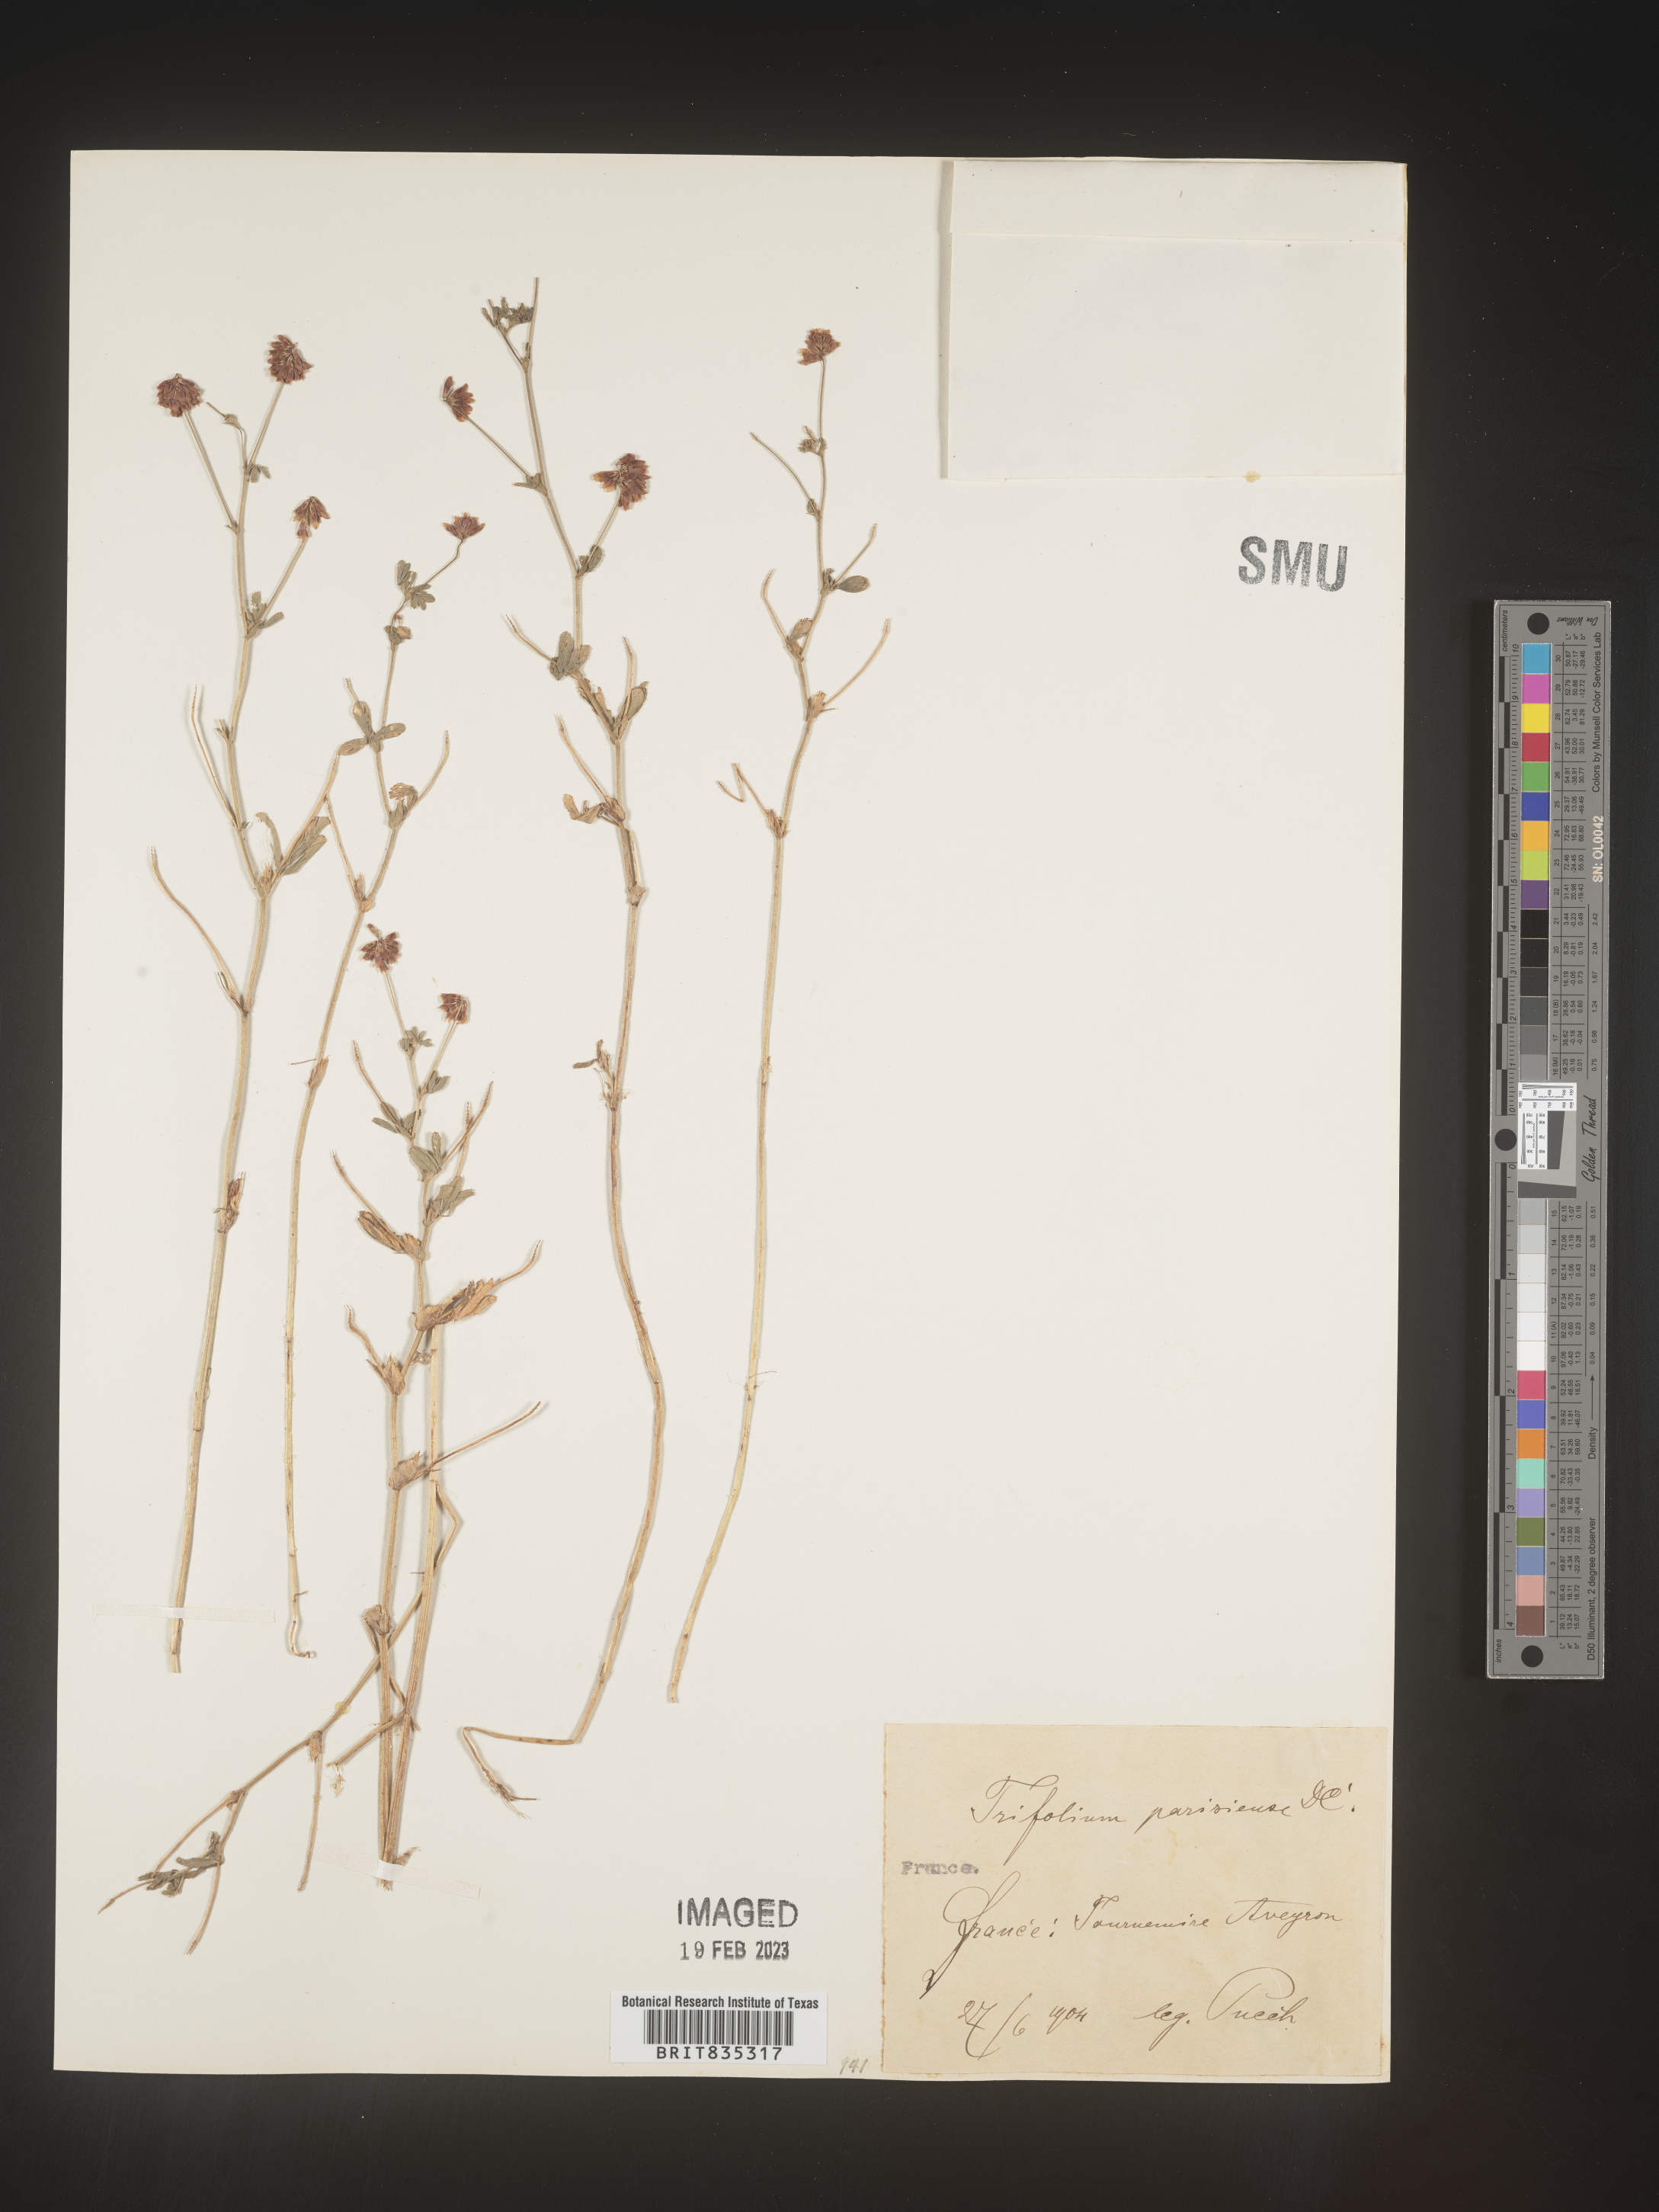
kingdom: Plantae
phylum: Tracheophyta
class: Magnoliopsida
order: Fabales
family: Fabaceae
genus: Trifolium
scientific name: Trifolium
